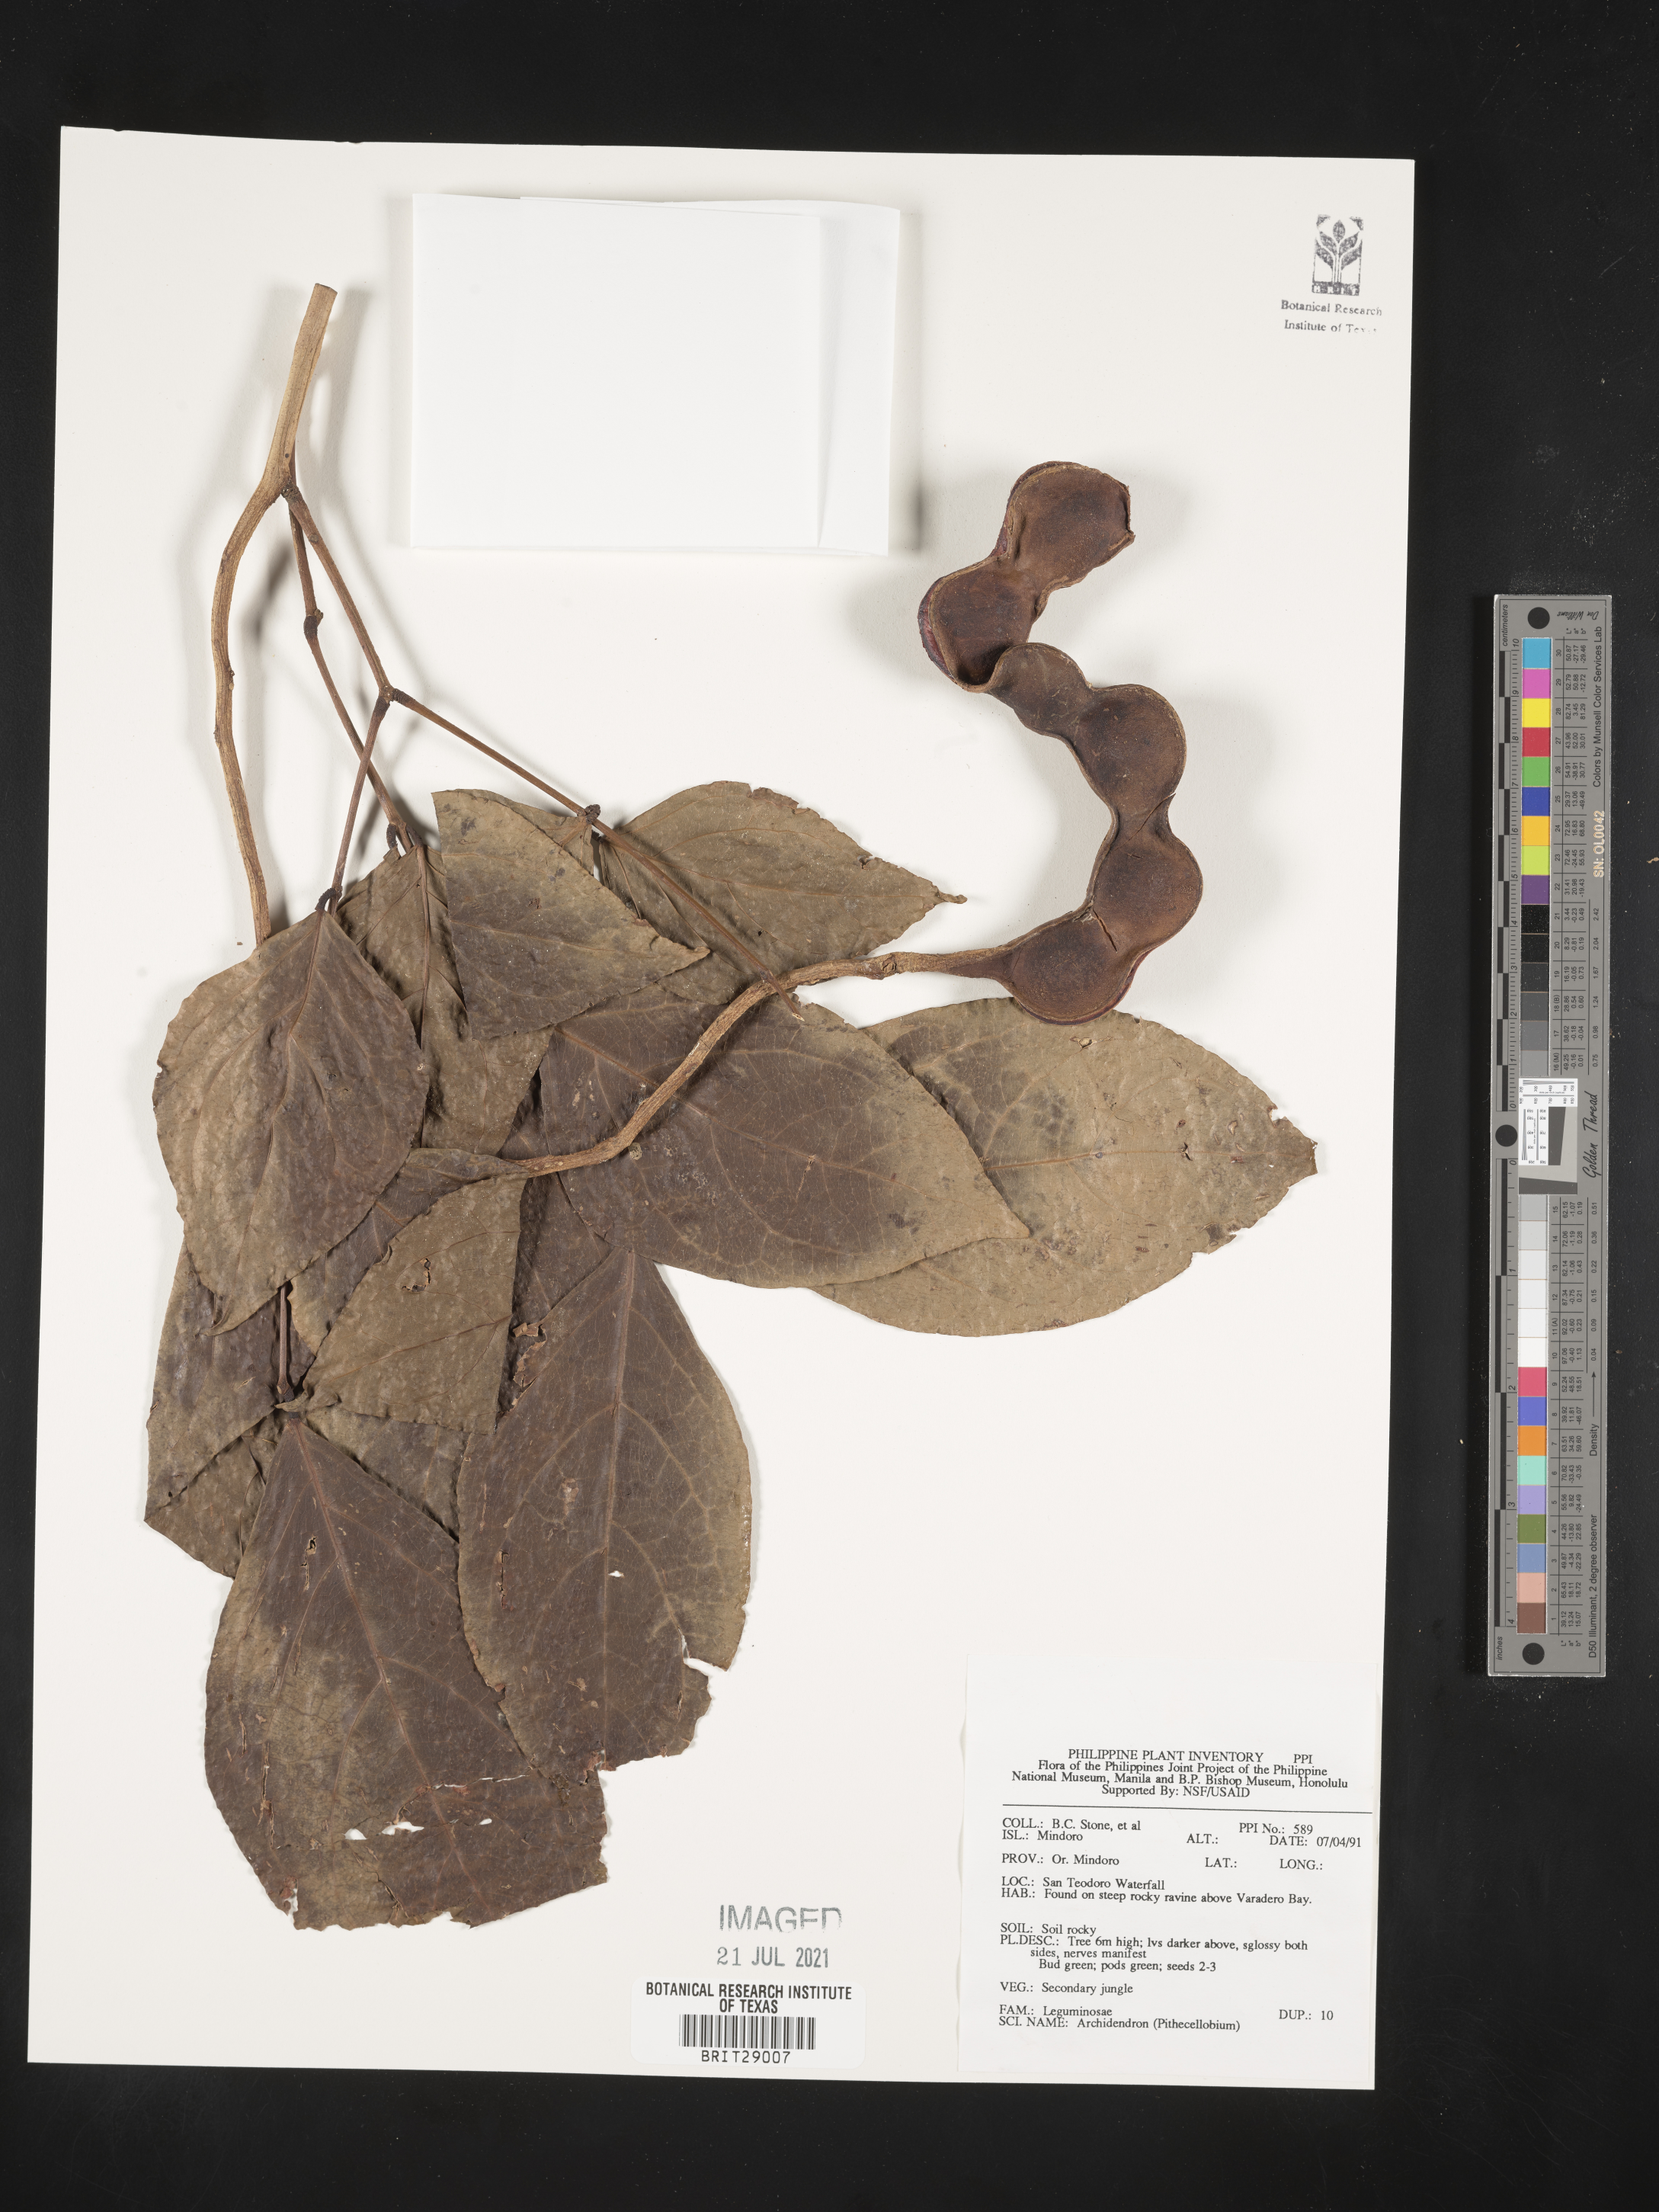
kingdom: Plantae
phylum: Tracheophyta
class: Magnoliopsida
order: Fabales
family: Fabaceae
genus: Archidendron
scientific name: Archidendron
